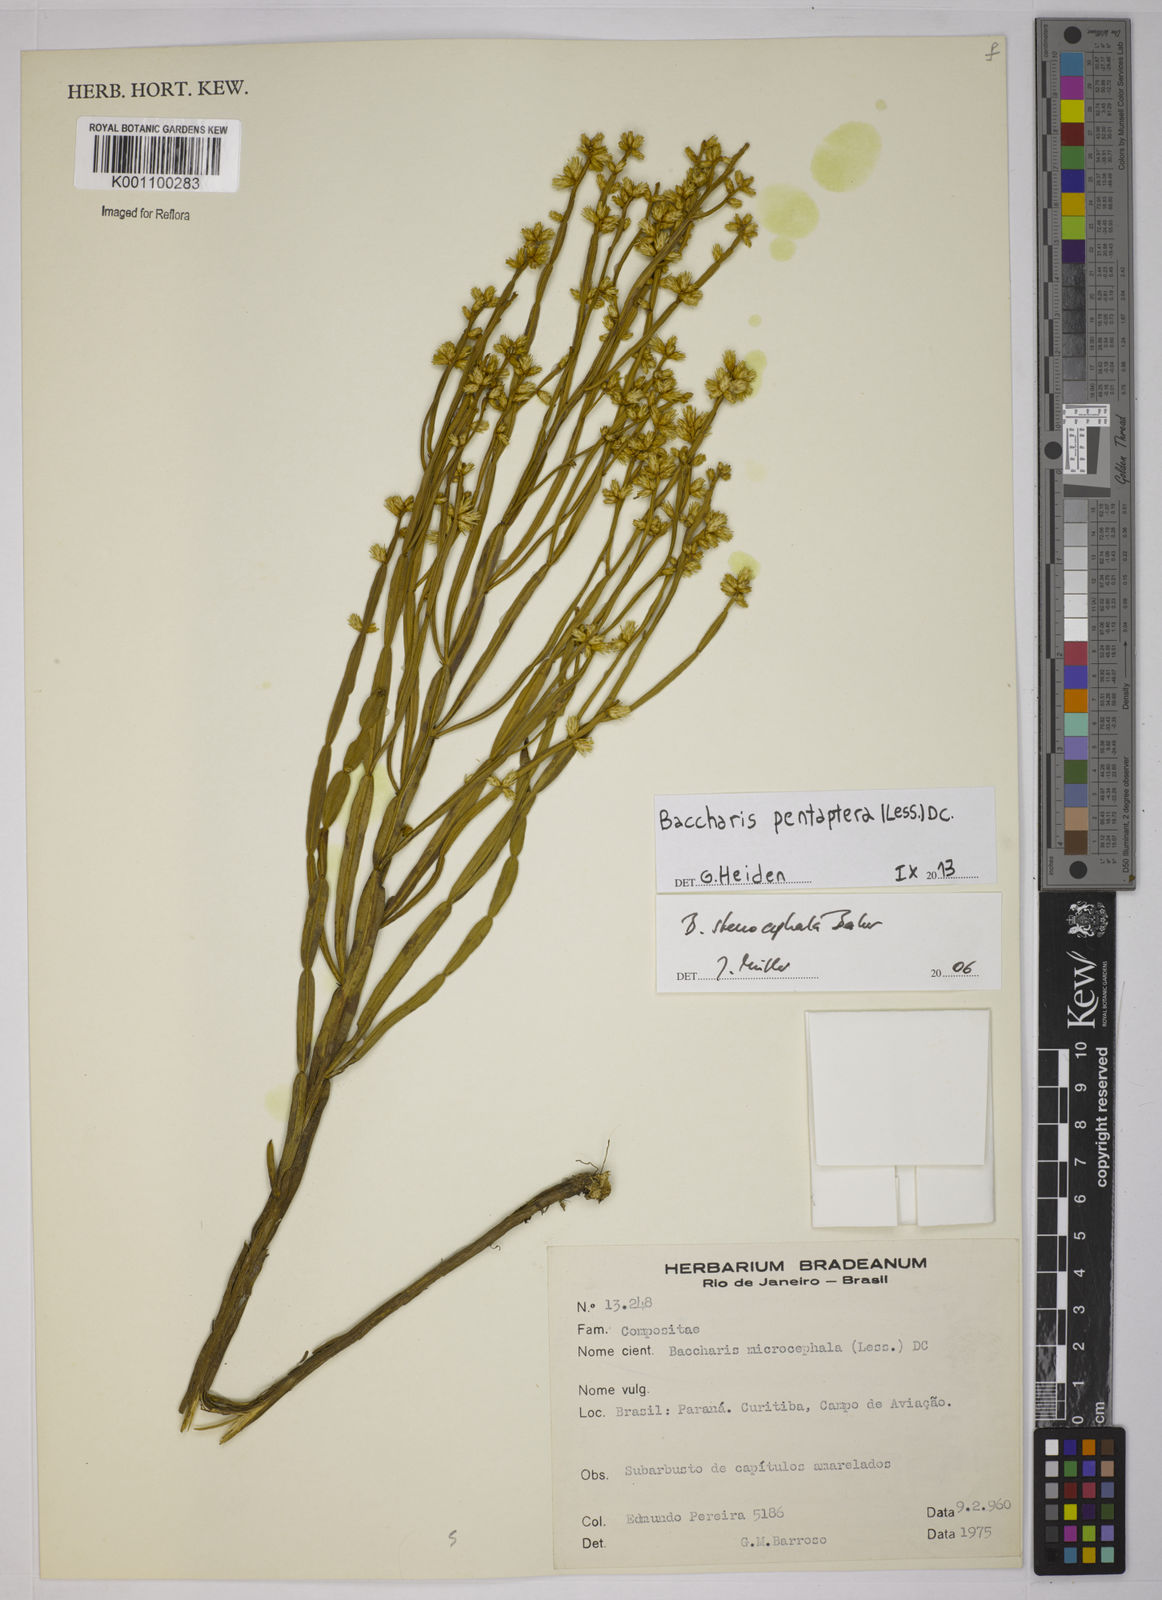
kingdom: Plantae
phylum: Tracheophyta
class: Magnoliopsida
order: Asterales
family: Asteraceae
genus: Baccharis
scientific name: Baccharis pentaptera
